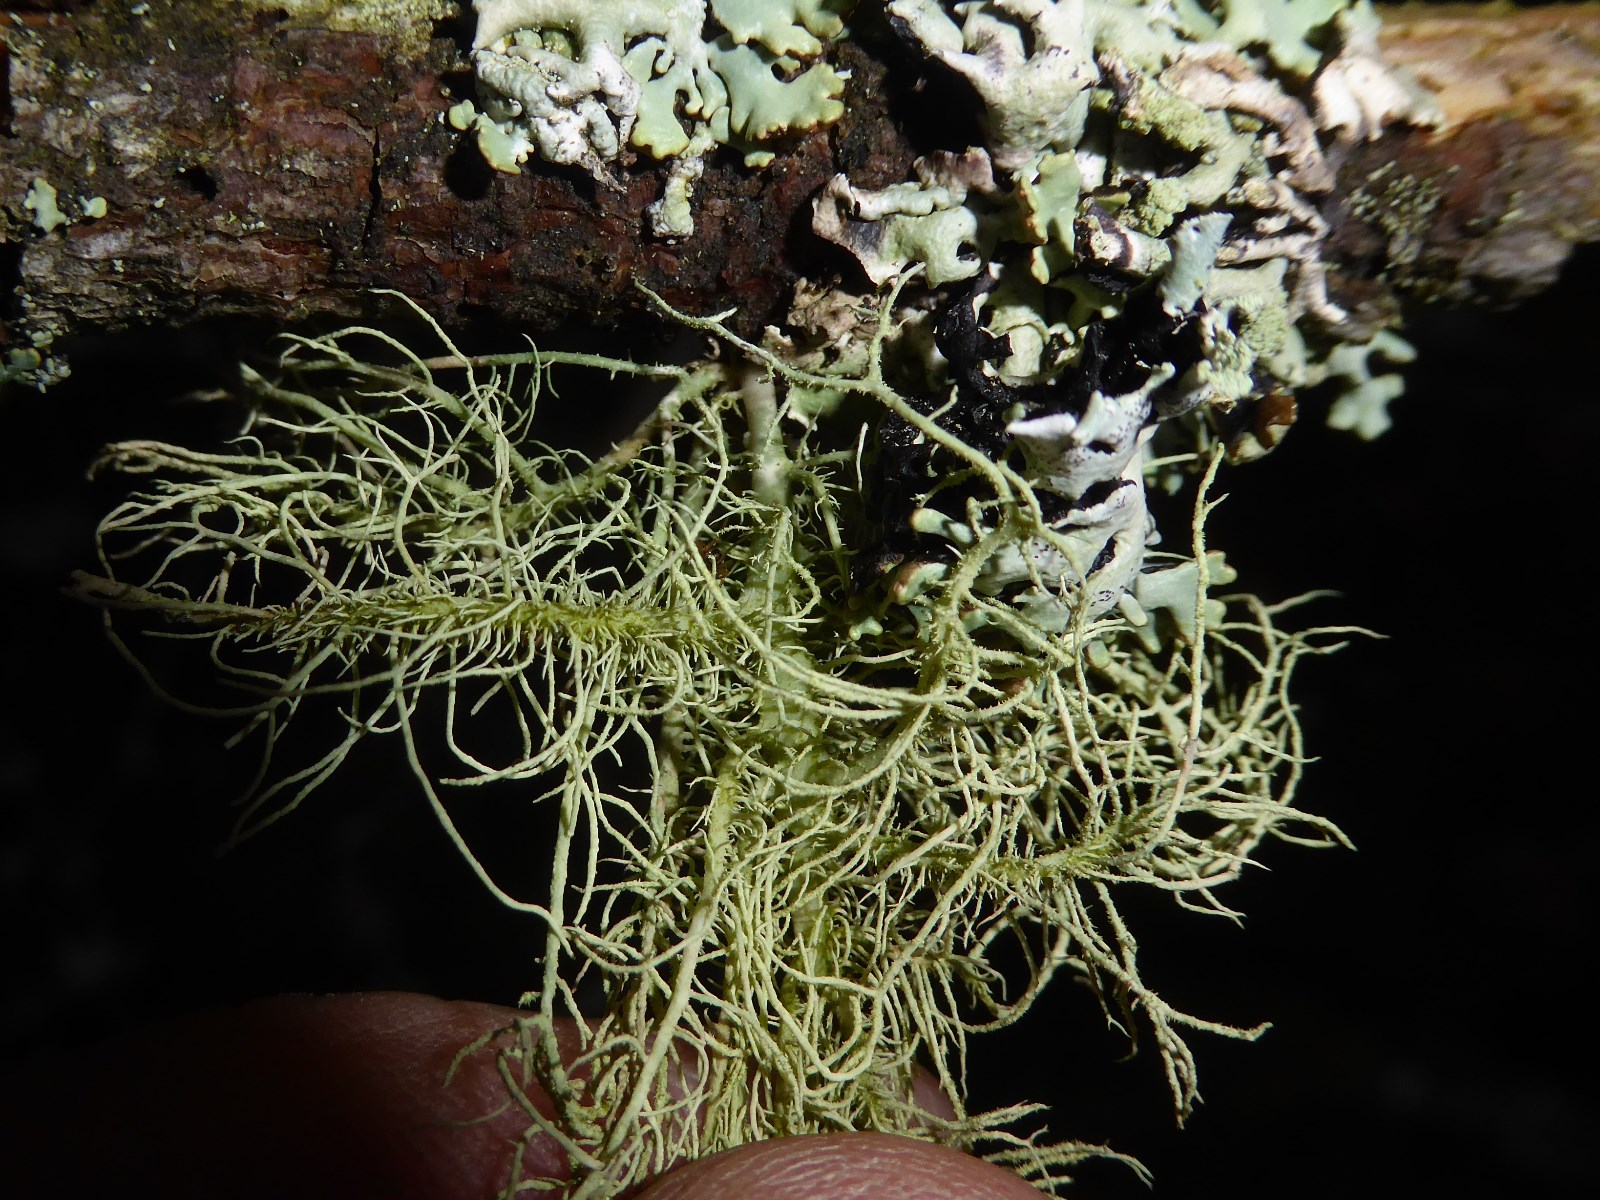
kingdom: Fungi
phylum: Ascomycota
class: Lecanoromycetes
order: Lecanorales
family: Parmeliaceae
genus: Usnea
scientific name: Usnea hirta
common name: liden skæglav
